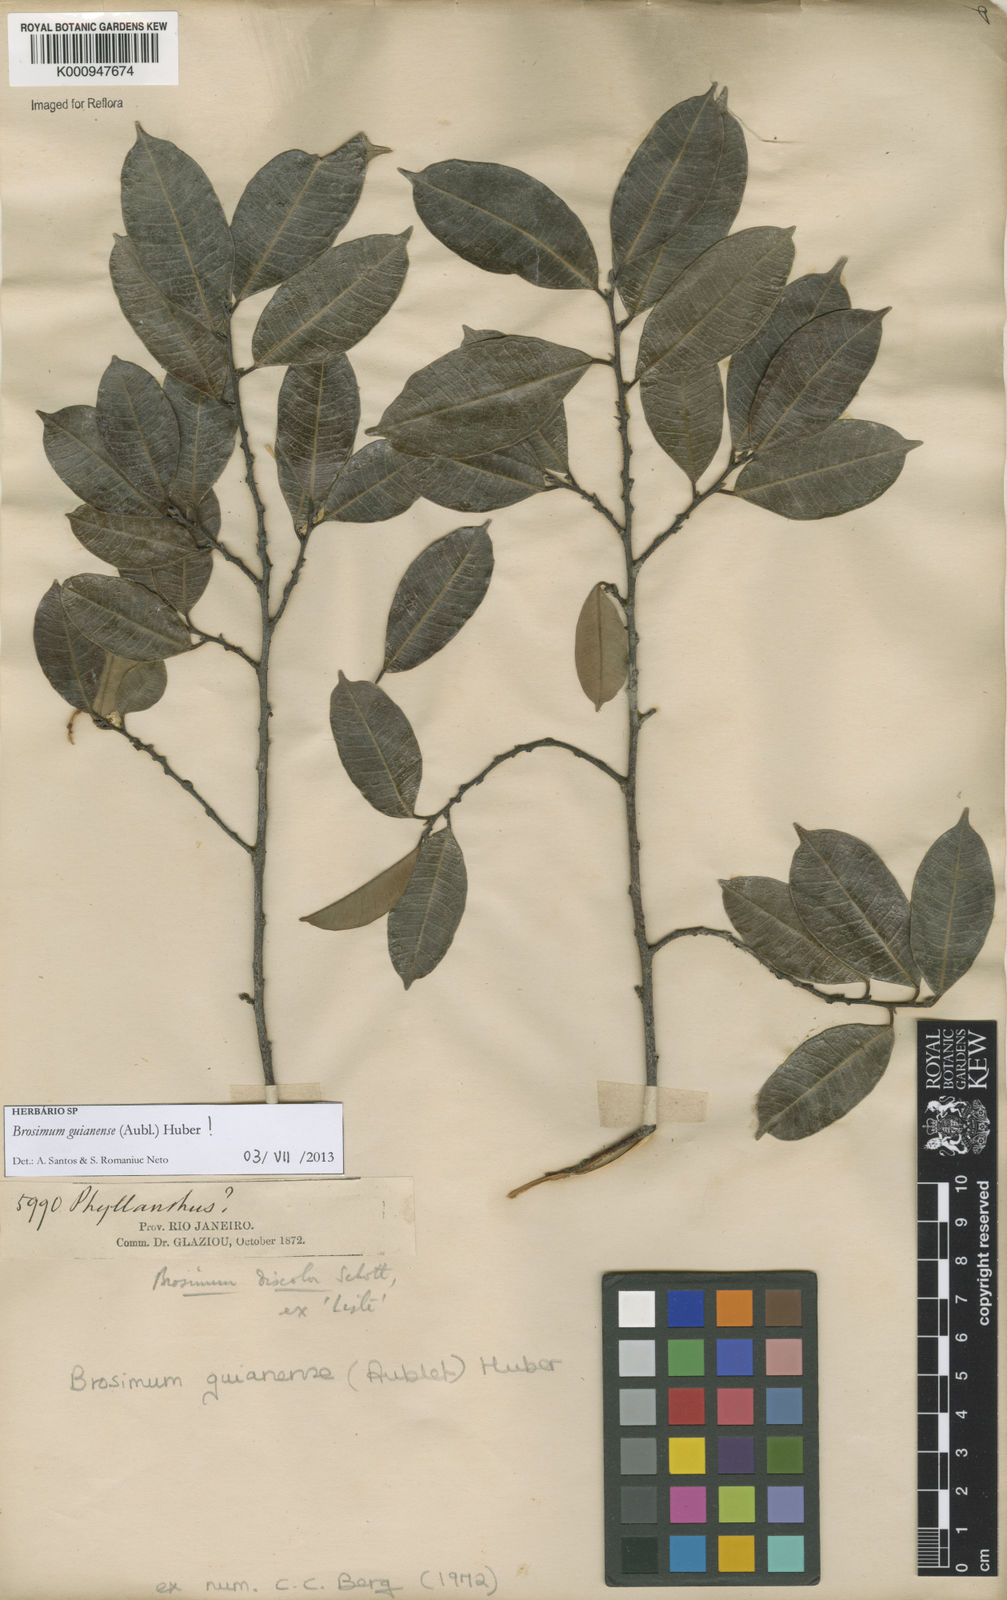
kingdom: Plantae
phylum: Tracheophyta
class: Magnoliopsida
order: Rosales
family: Moraceae
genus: Brosimum
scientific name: Brosimum
